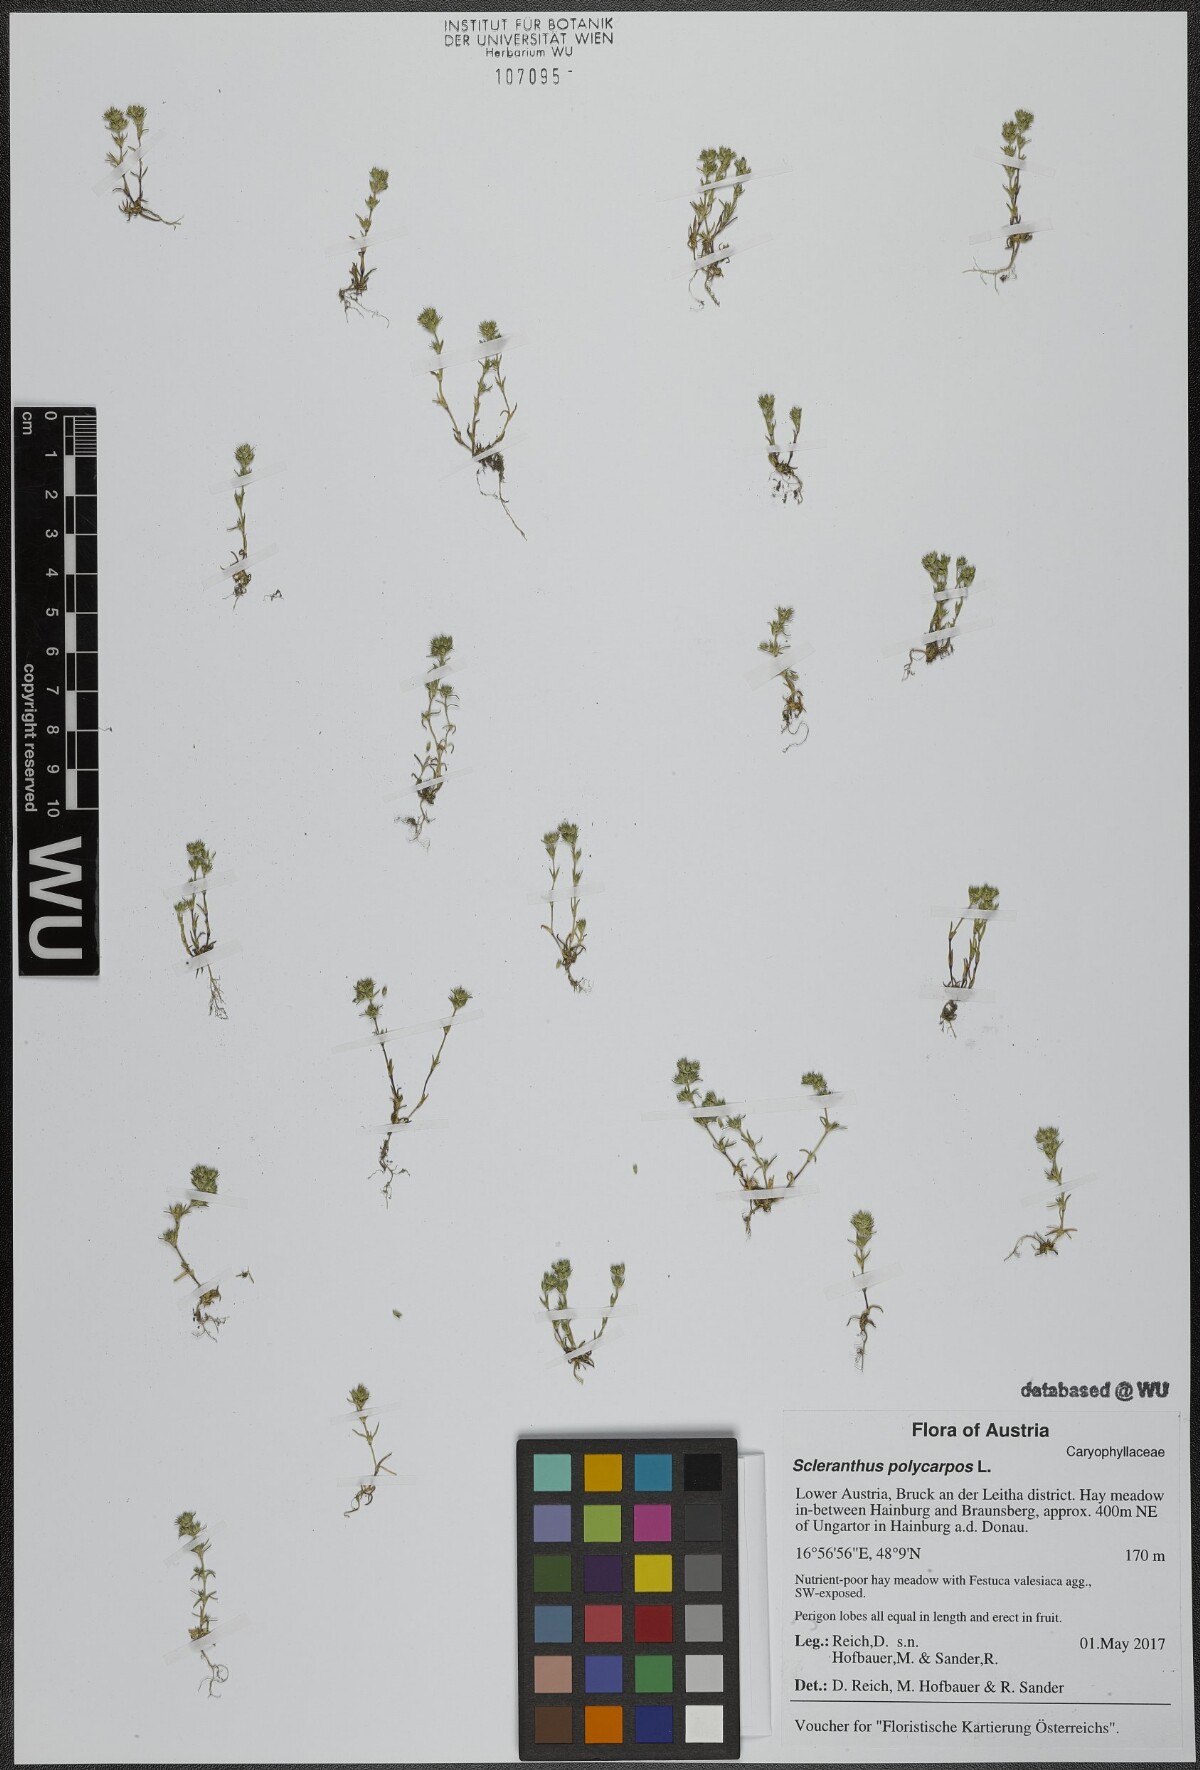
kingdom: Plantae
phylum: Tracheophyta
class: Magnoliopsida
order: Caryophyllales
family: Caryophyllaceae
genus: Scleranthus
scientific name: Scleranthus annuus
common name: Annual knawel
